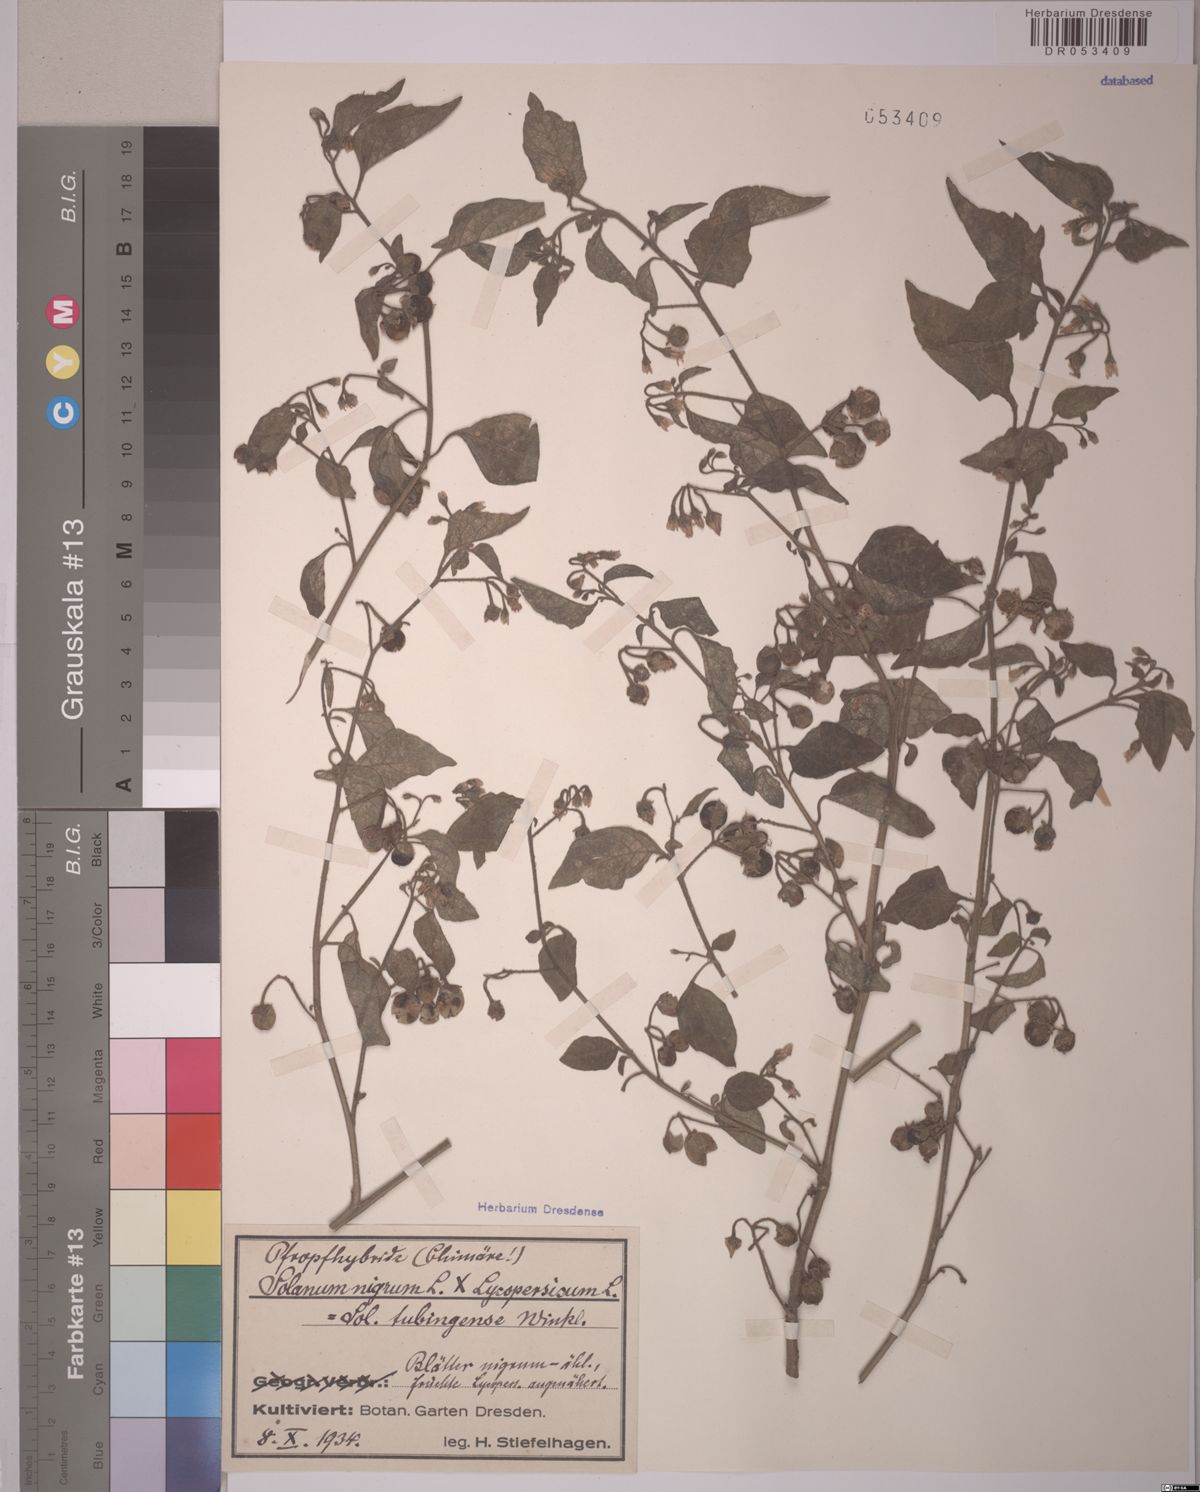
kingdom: Plantae
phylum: Tracheophyta
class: Magnoliopsida
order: Solanales
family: Solanaceae
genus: Solanum
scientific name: Solanum
